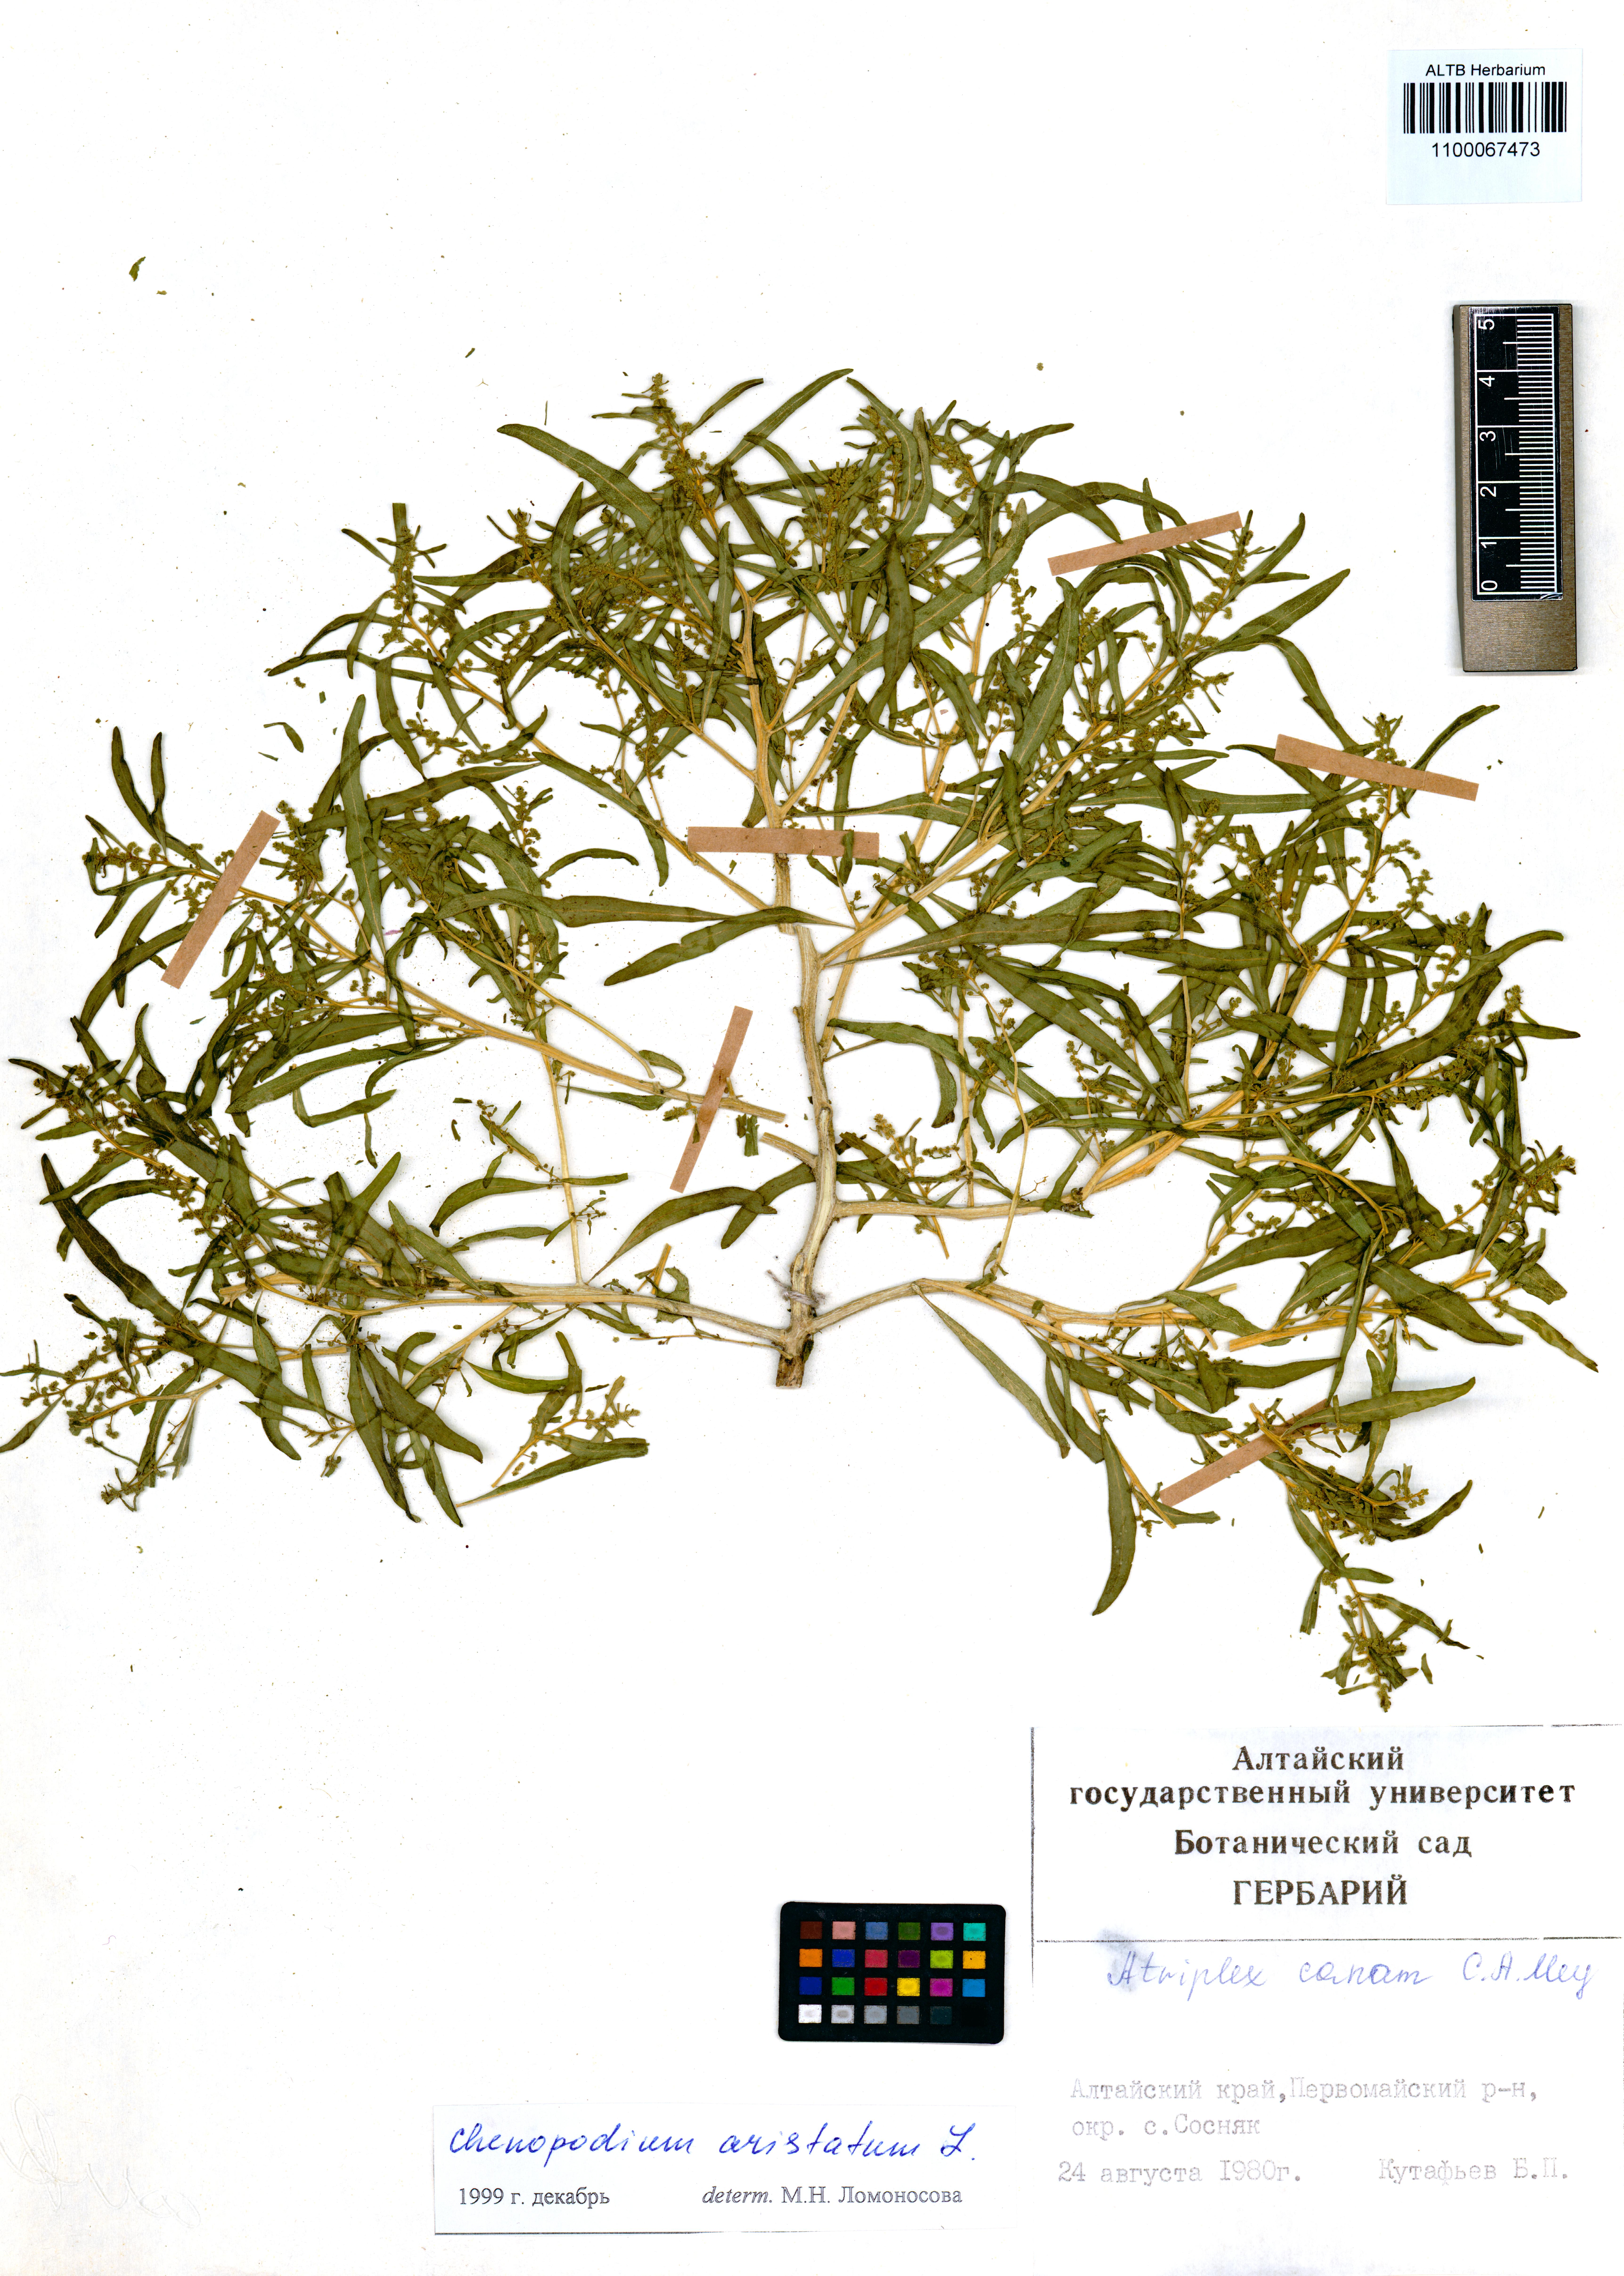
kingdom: Plantae
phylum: Tracheophyta
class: Magnoliopsida
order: Caryophyllales
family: Amaranthaceae
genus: Teloxys
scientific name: Teloxys aristata
